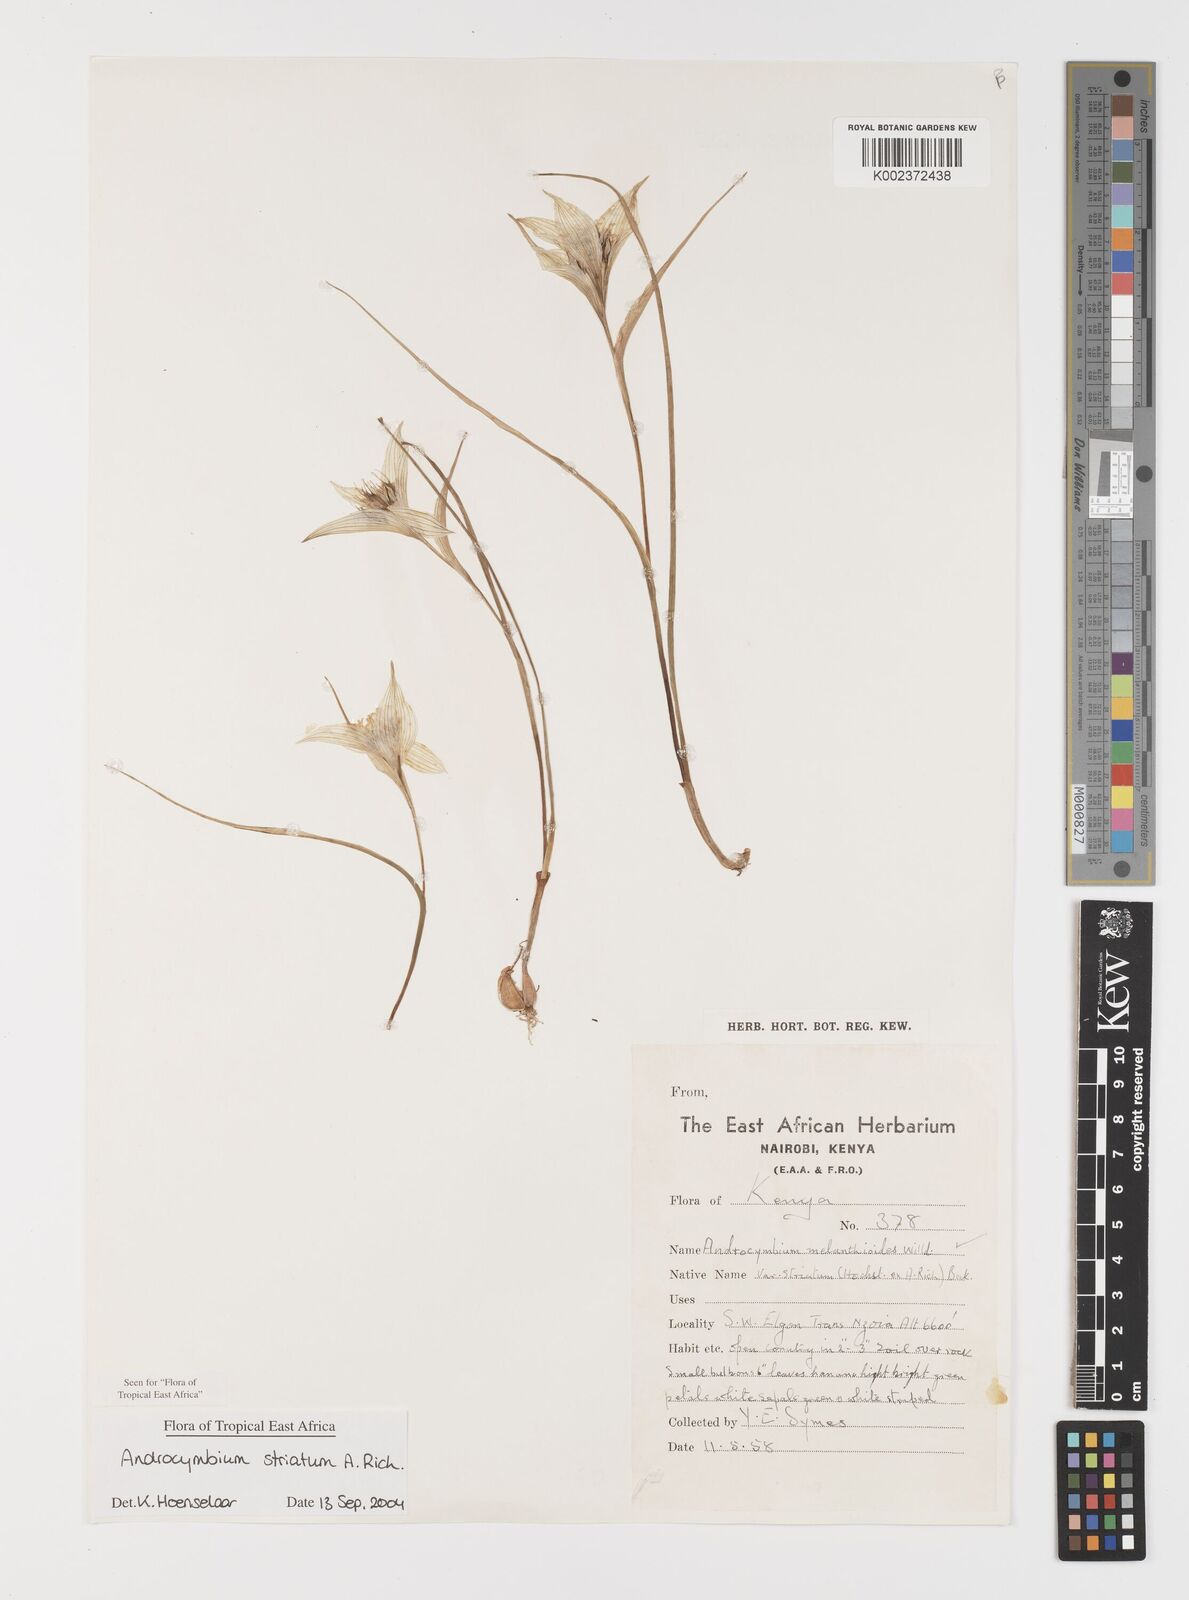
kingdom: Plantae
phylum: Tracheophyta
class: Liliopsida
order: Liliales
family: Colchicaceae
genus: Colchicum
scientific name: Colchicum striatum
